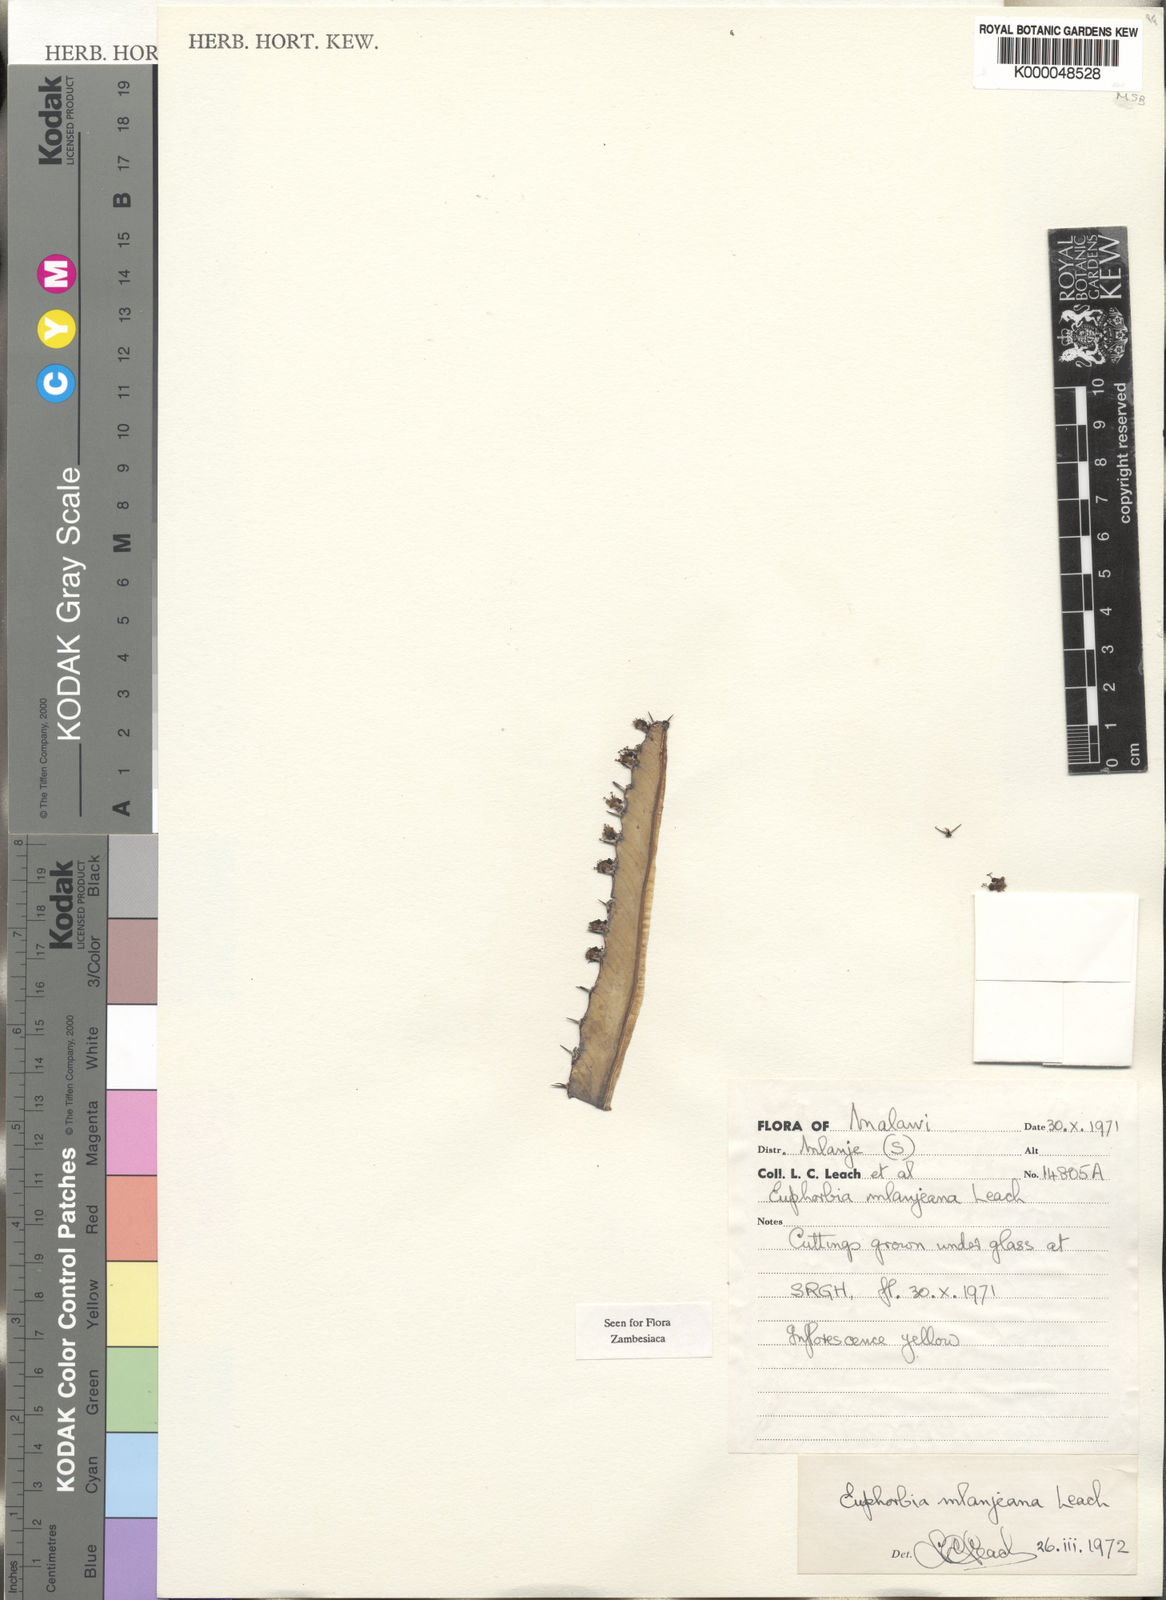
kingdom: Plantae
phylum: Tracheophyta
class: Magnoliopsida
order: Malpighiales
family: Euphorbiaceae
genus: Euphorbia
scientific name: Euphorbia mlanjeana
